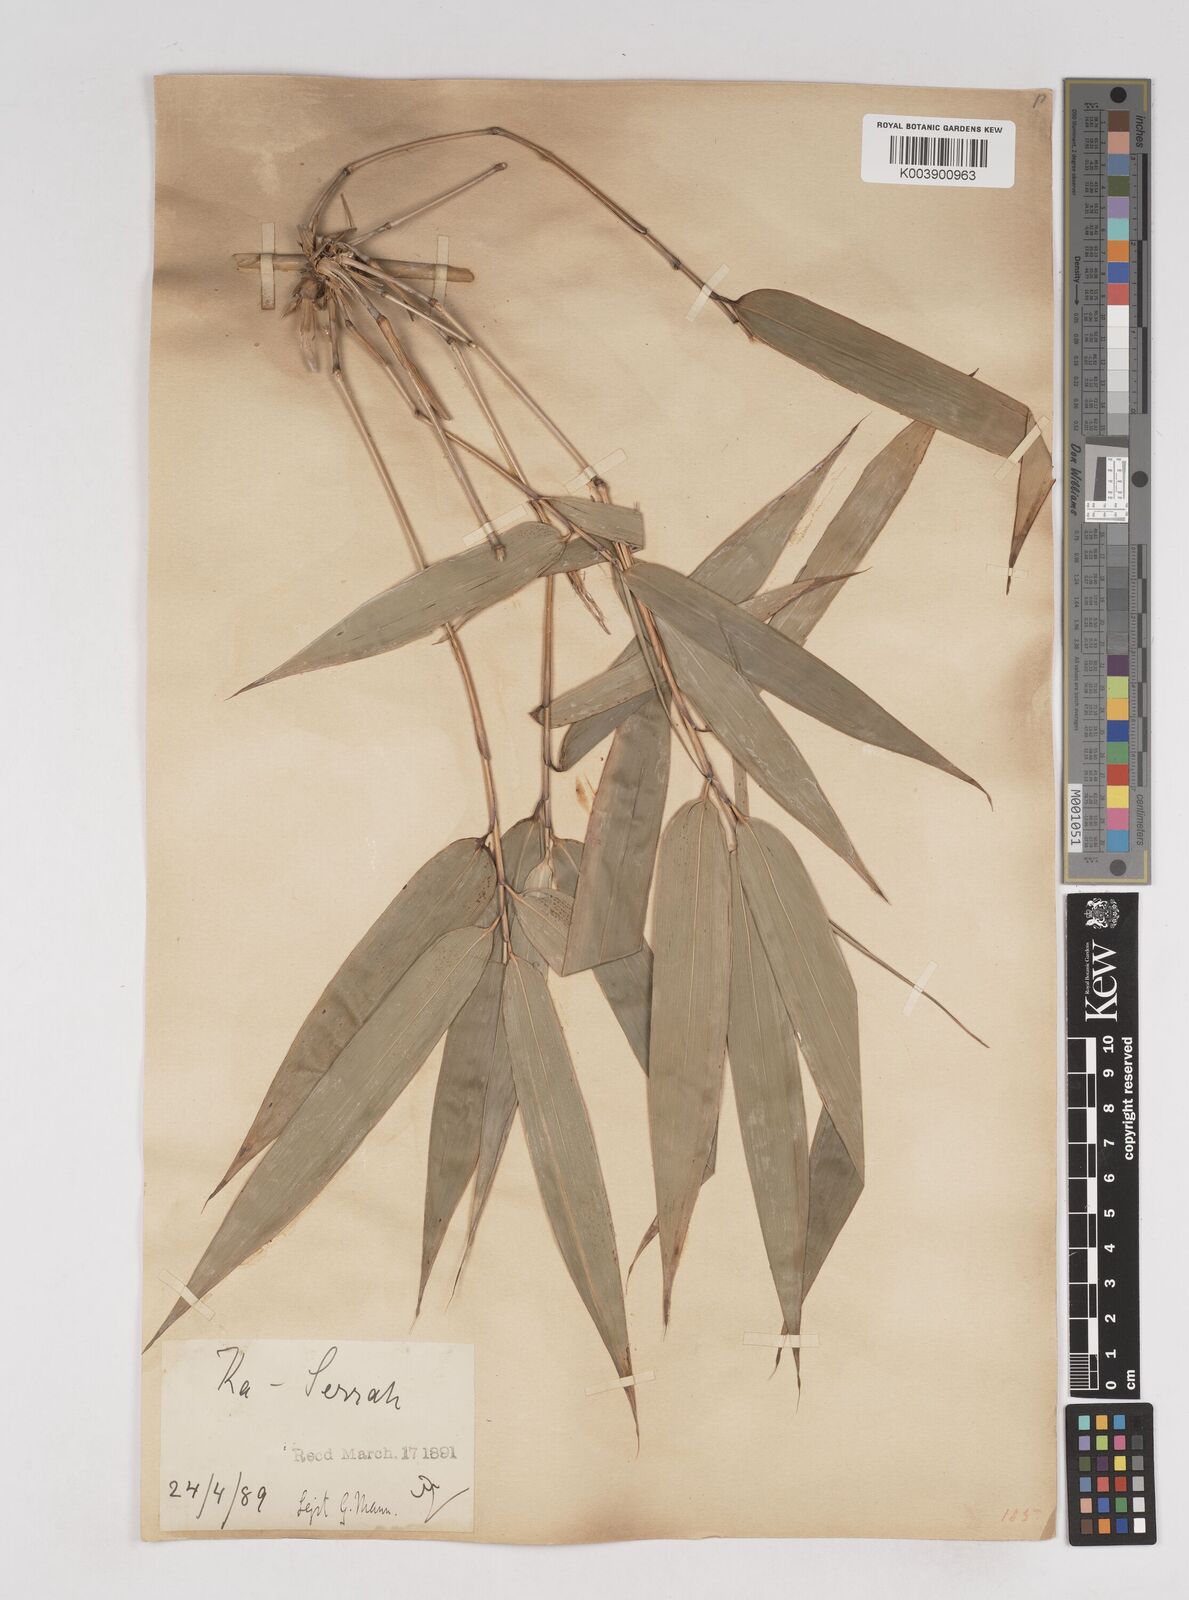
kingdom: Plantae
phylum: Tracheophyta
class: Liliopsida
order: Poales
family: Poaceae
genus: Cephalostachyum
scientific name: Cephalostachyum capitatum
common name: Hollow bamboo
